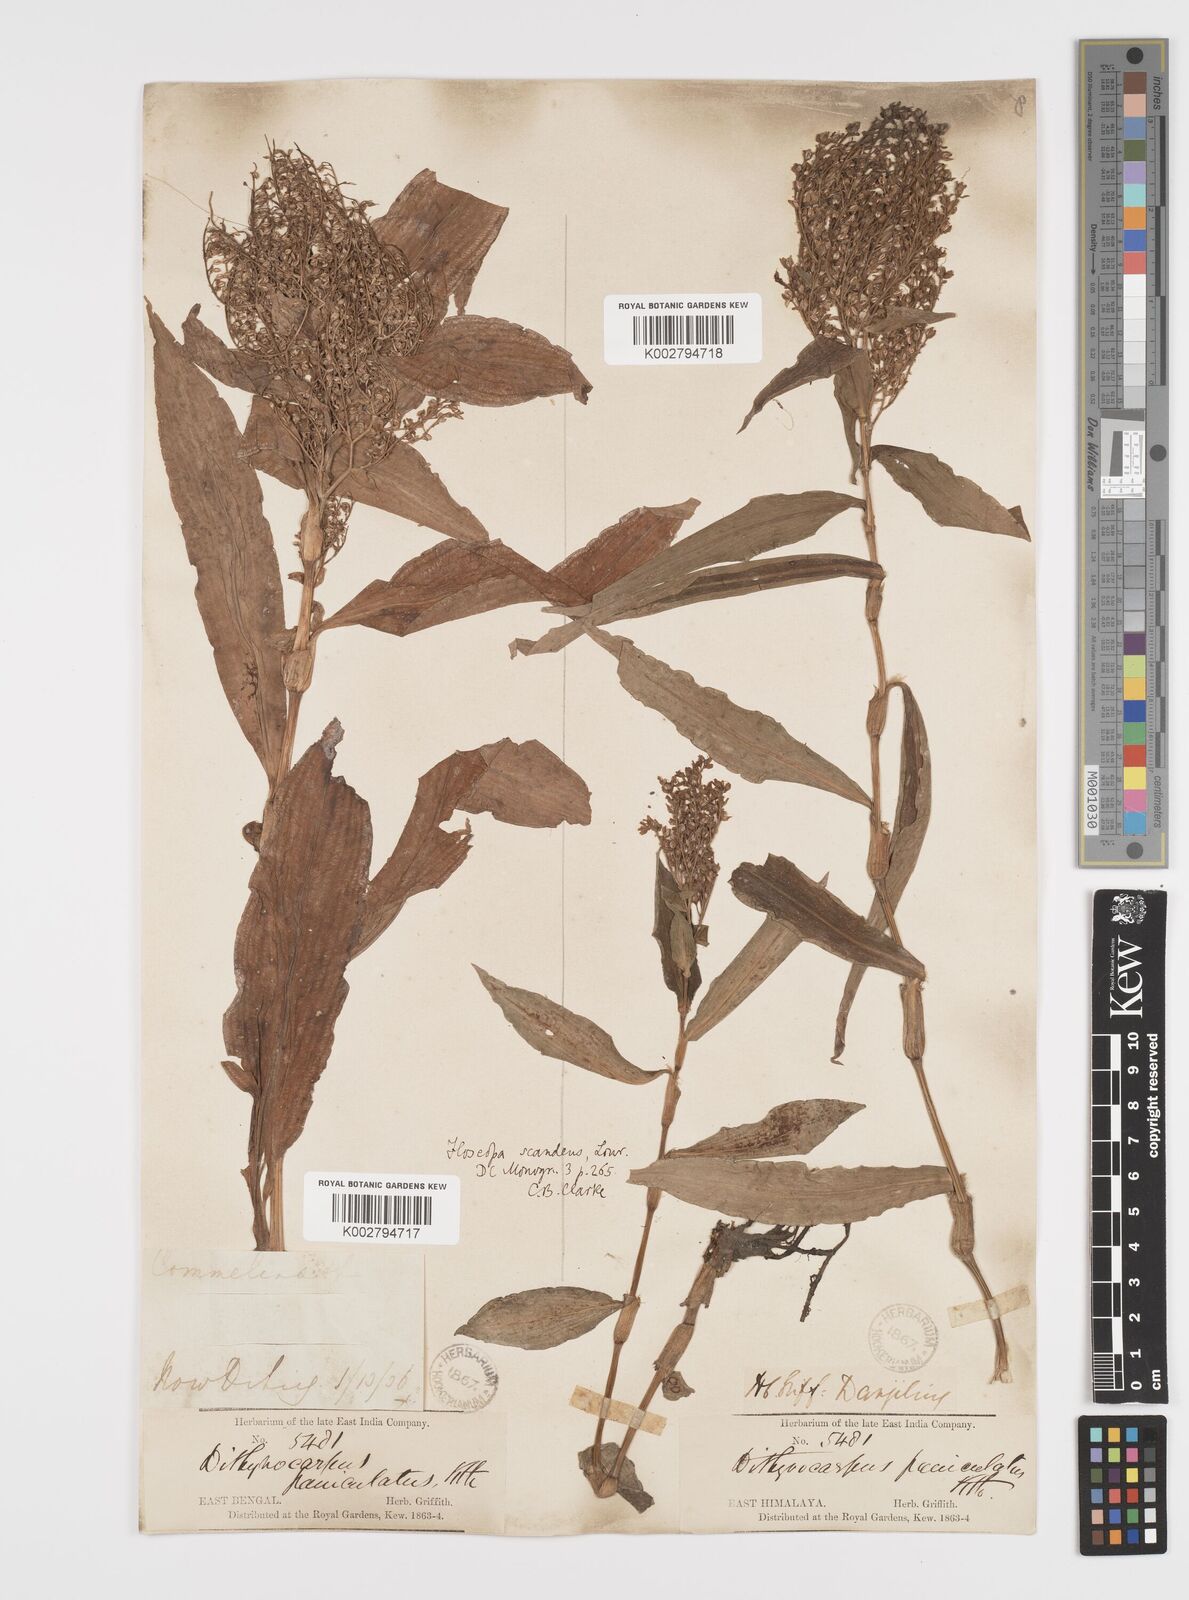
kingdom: Plantae
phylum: Tracheophyta
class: Liliopsida
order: Commelinales
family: Commelinaceae
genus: Floscopa
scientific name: Floscopa scandens
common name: Climbing flower cup
